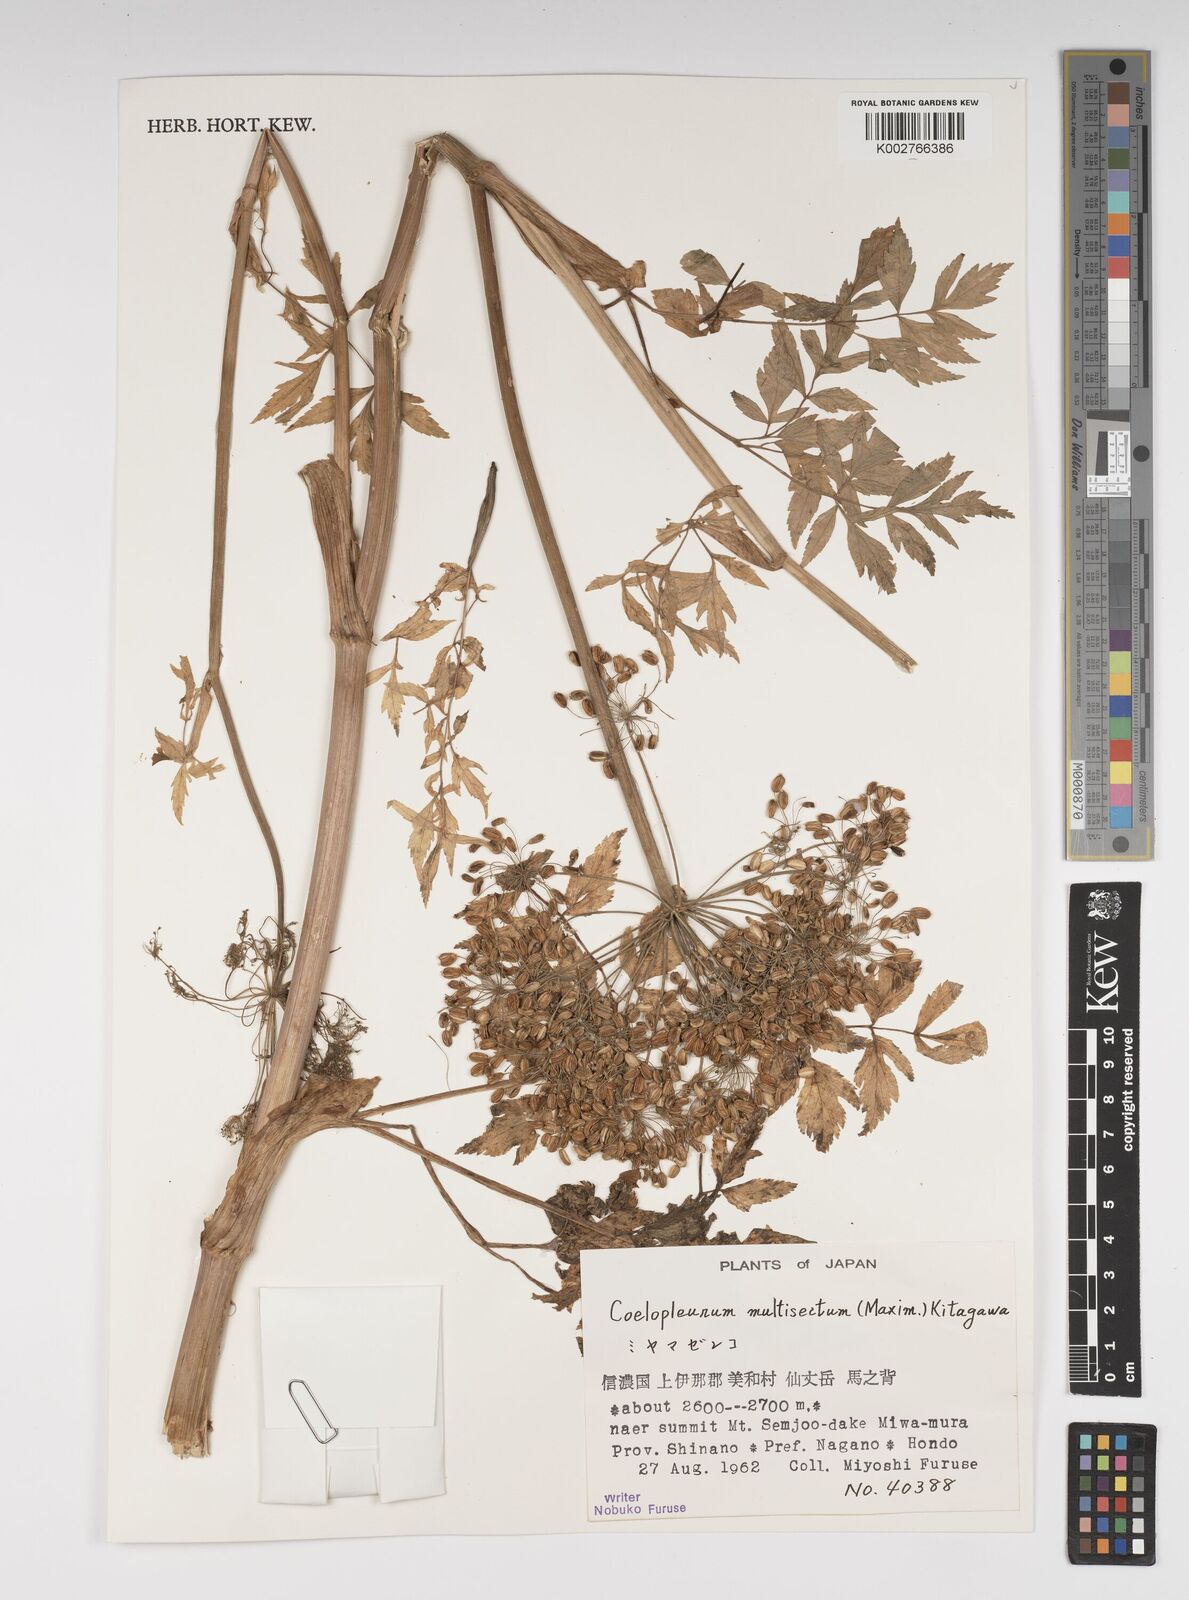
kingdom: Plantae
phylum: Tracheophyta
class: Magnoliopsida
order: Apiales
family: Apiaceae
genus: Angelica
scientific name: Angelica
